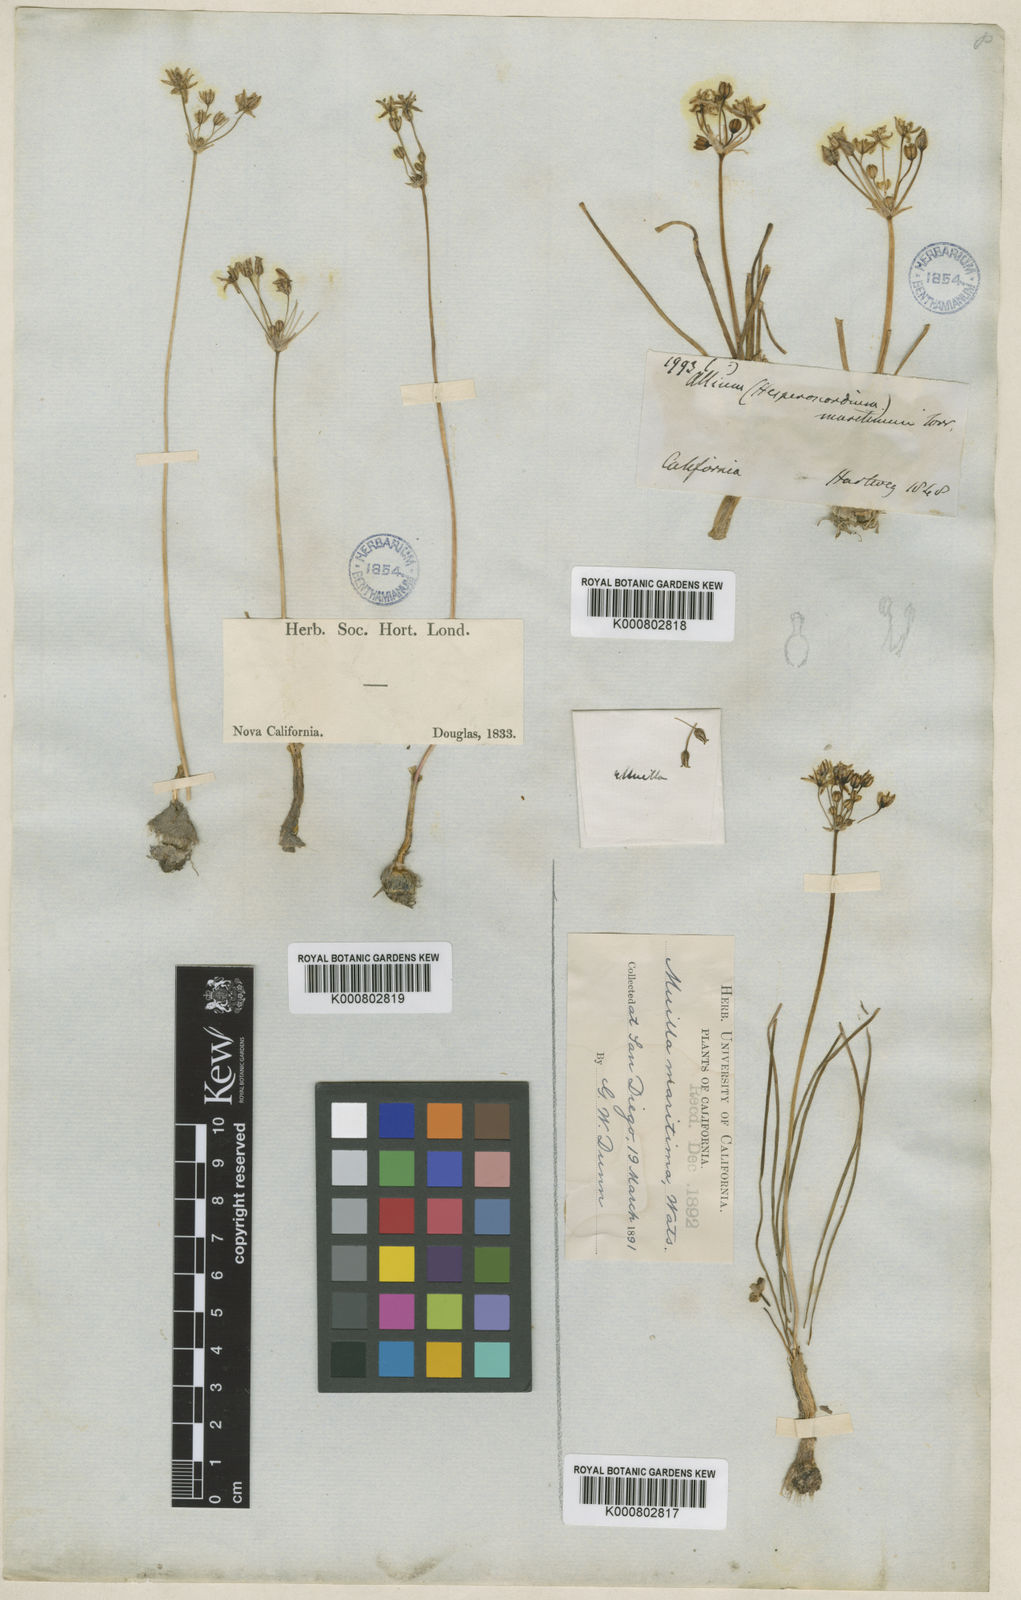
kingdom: Plantae
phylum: Tracheophyta
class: Liliopsida
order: Asparagales
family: Asparagaceae
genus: Muilla
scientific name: Muilla
